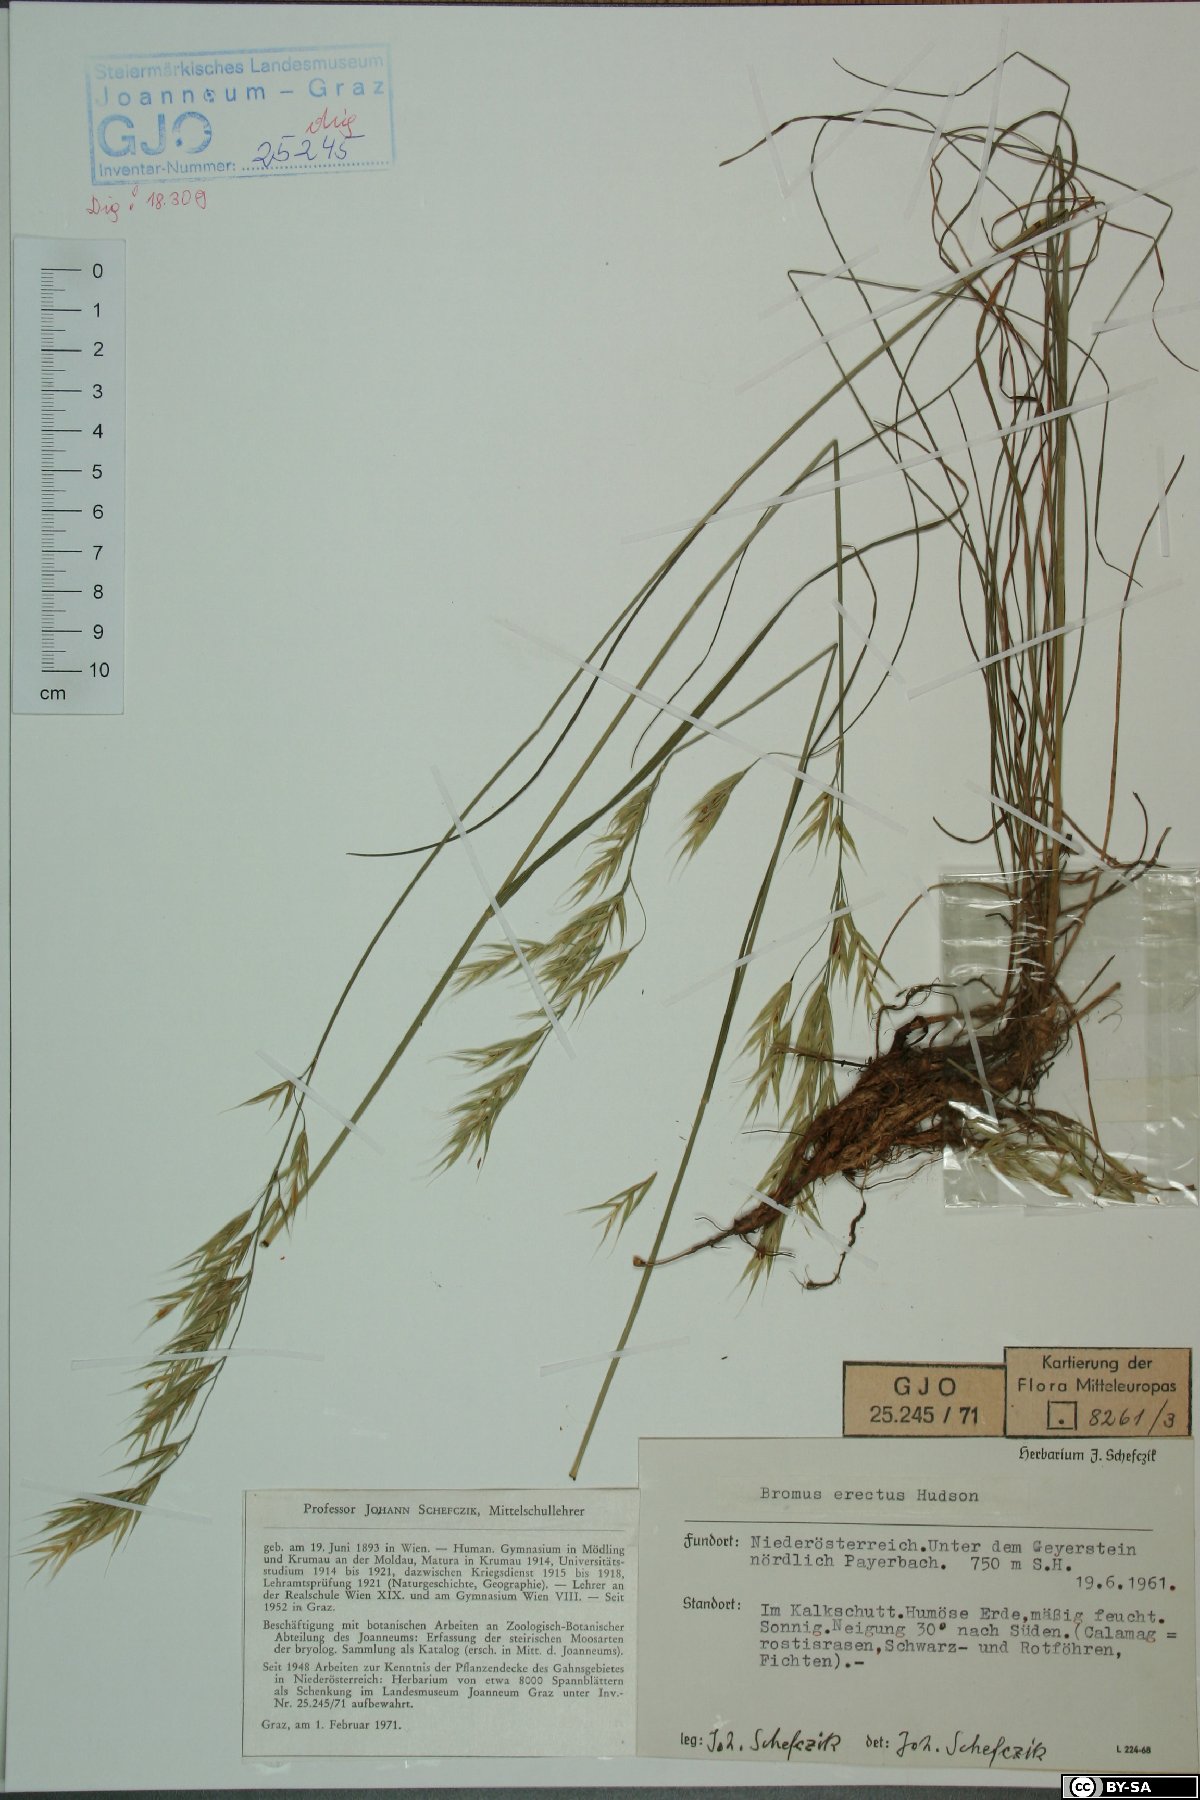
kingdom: Plantae
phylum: Tracheophyta
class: Liliopsida
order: Poales
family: Poaceae
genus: Bromus
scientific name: Bromus erectus
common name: Erect brome
